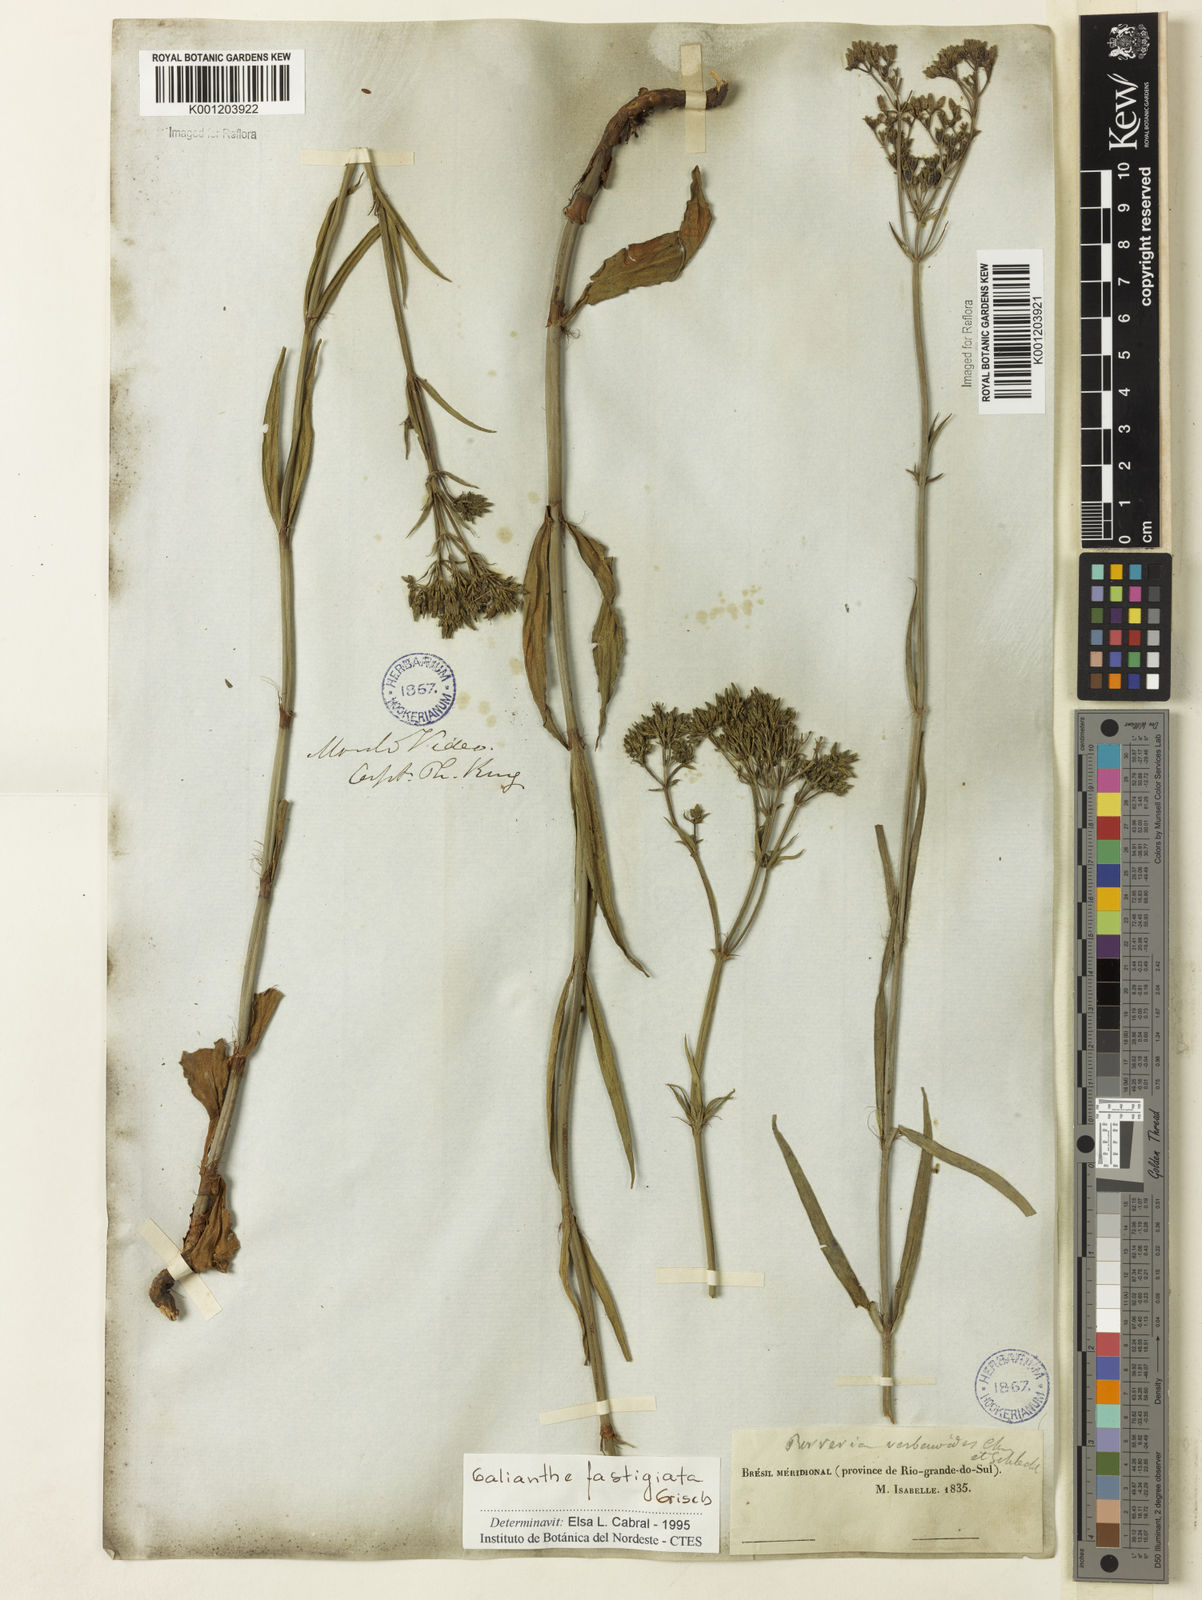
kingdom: Plantae
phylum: Tracheophyta
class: Magnoliopsida
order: Gentianales
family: Rubiaceae
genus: Galianthe
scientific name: Galianthe fastigiata
